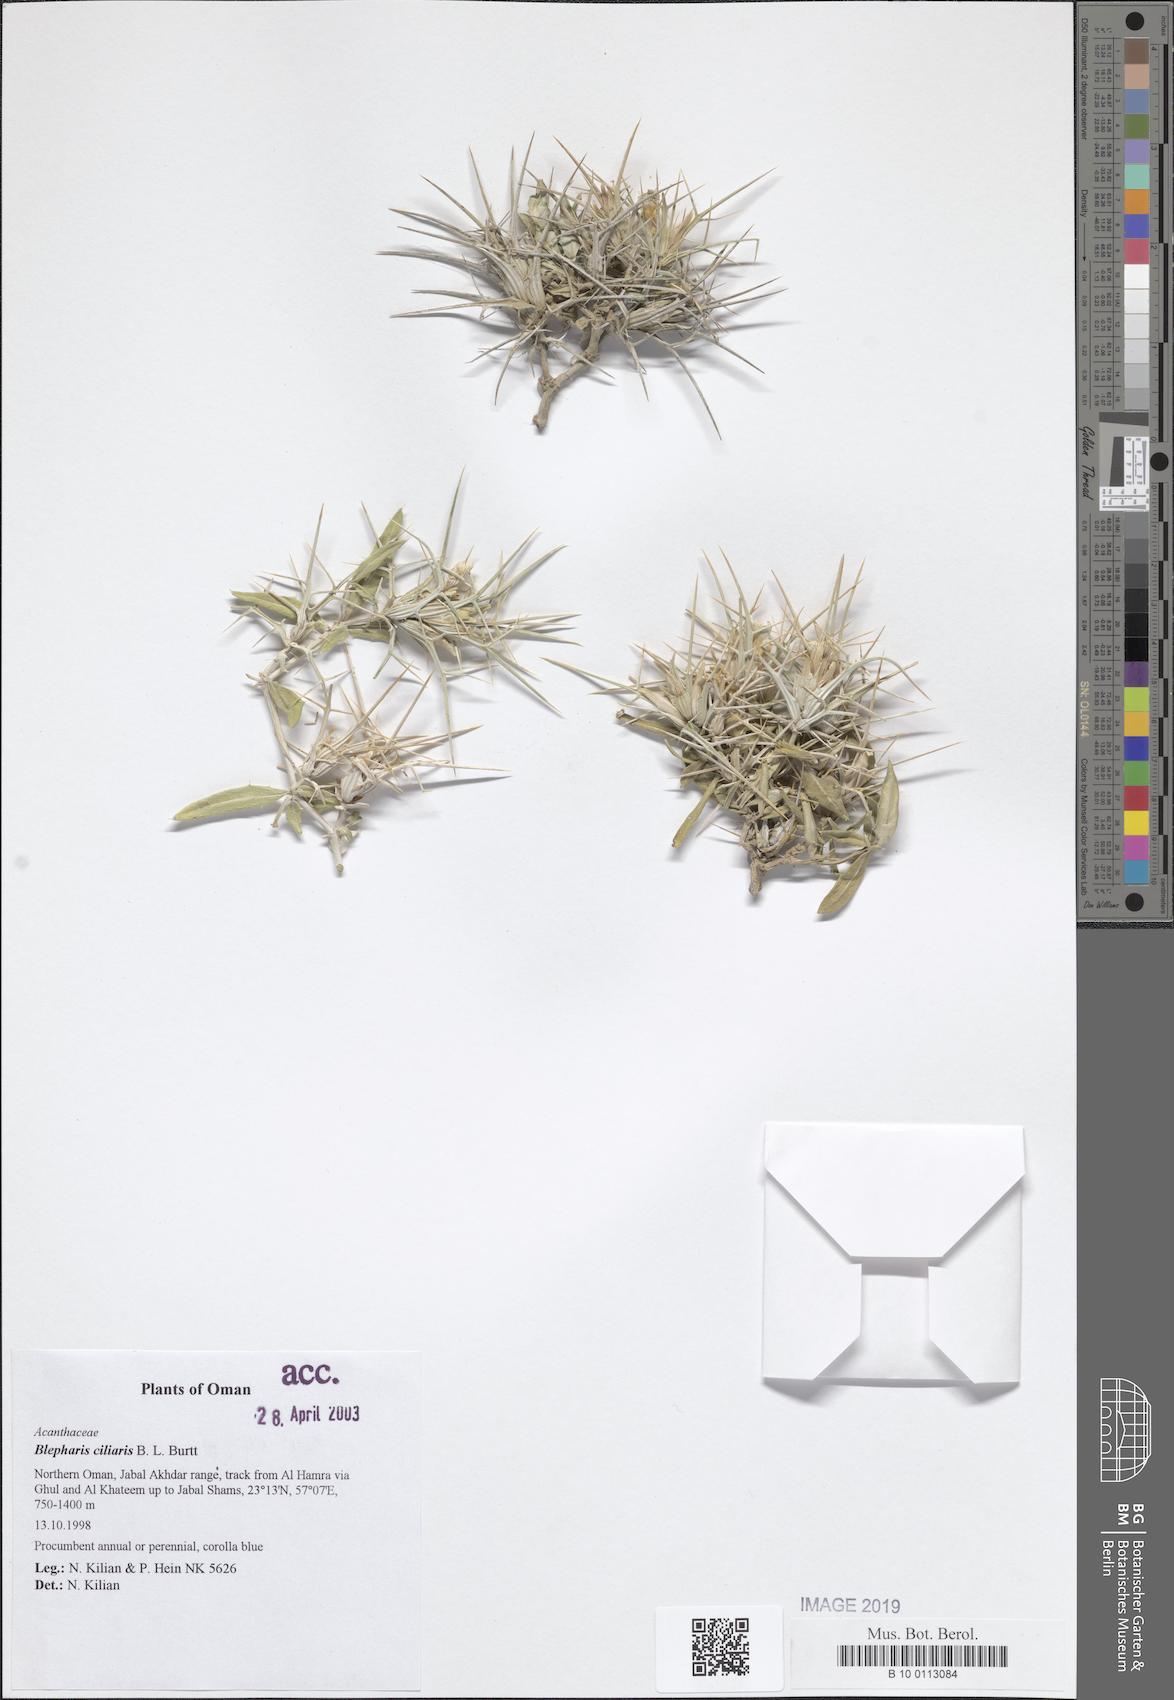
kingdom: Plantae
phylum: Tracheophyta
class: Magnoliopsida
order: Lamiales
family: Acanthaceae
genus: Blepharis
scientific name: Blepharis ciliaris
